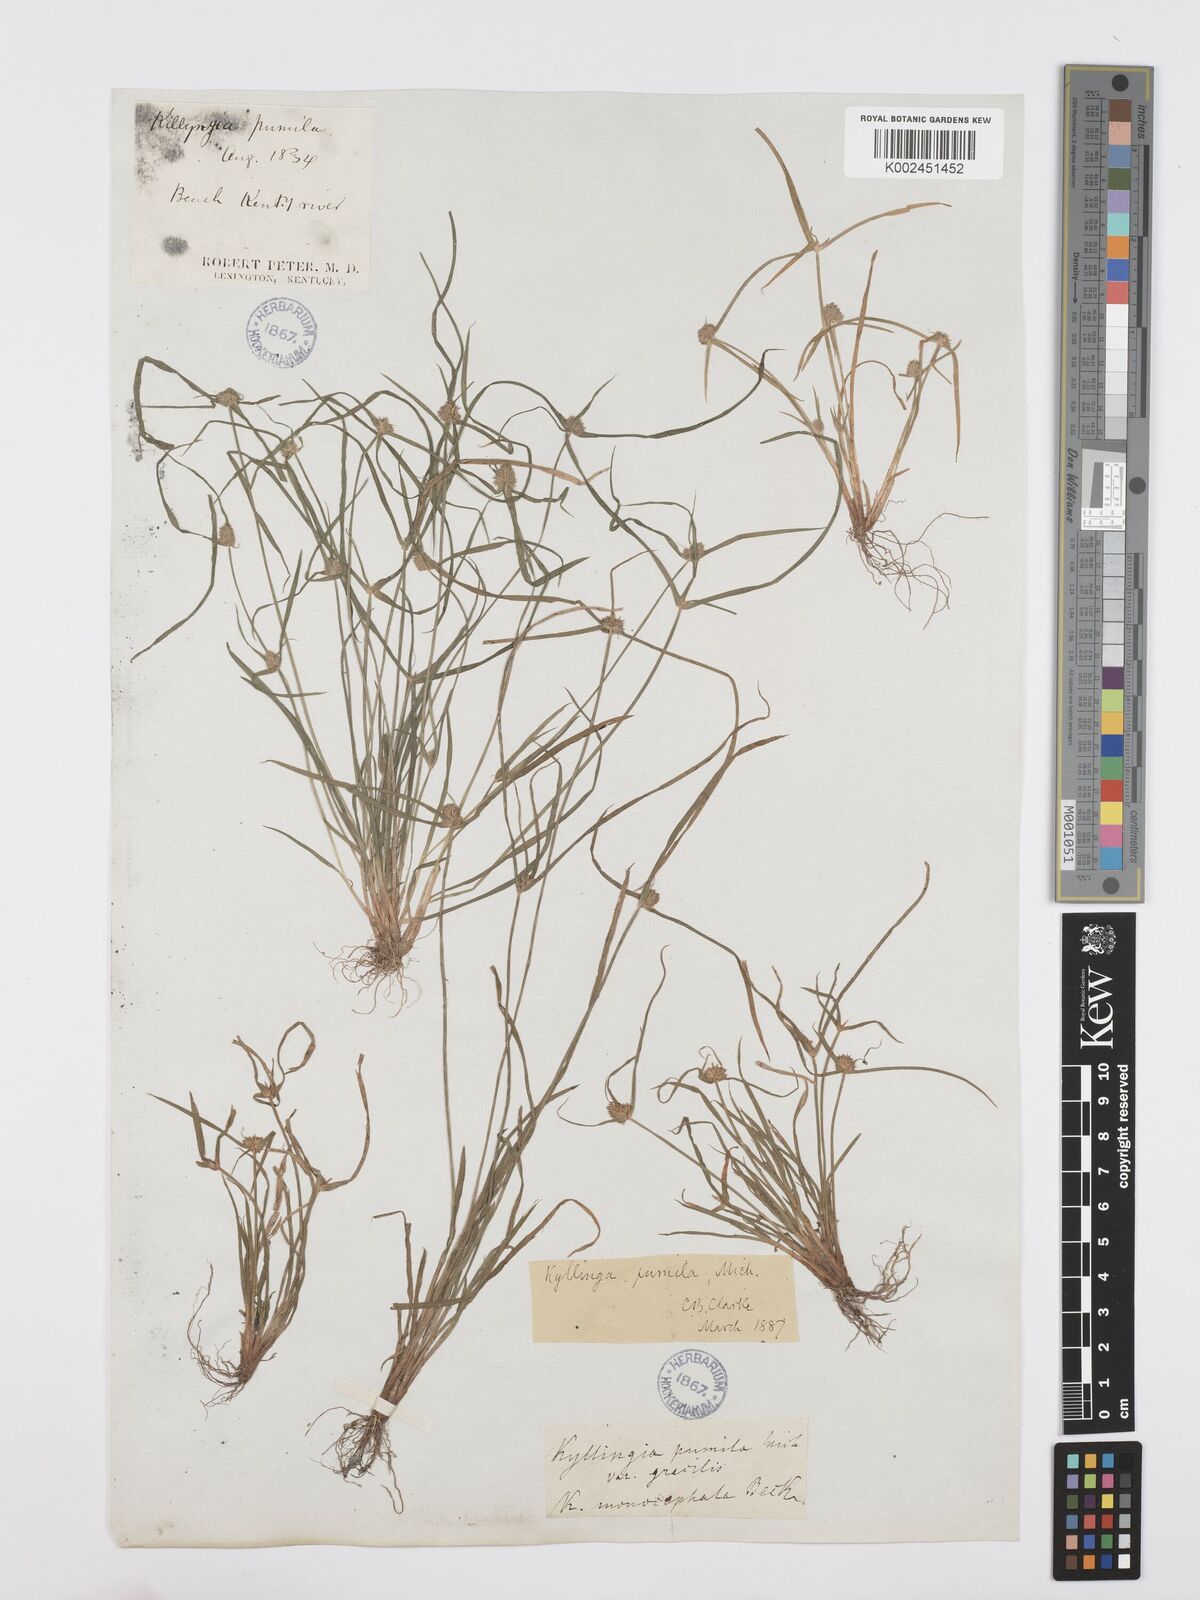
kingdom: Plantae
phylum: Tracheophyta
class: Liliopsida
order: Poales
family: Cyperaceae
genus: Cyperus
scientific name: Cyperus
